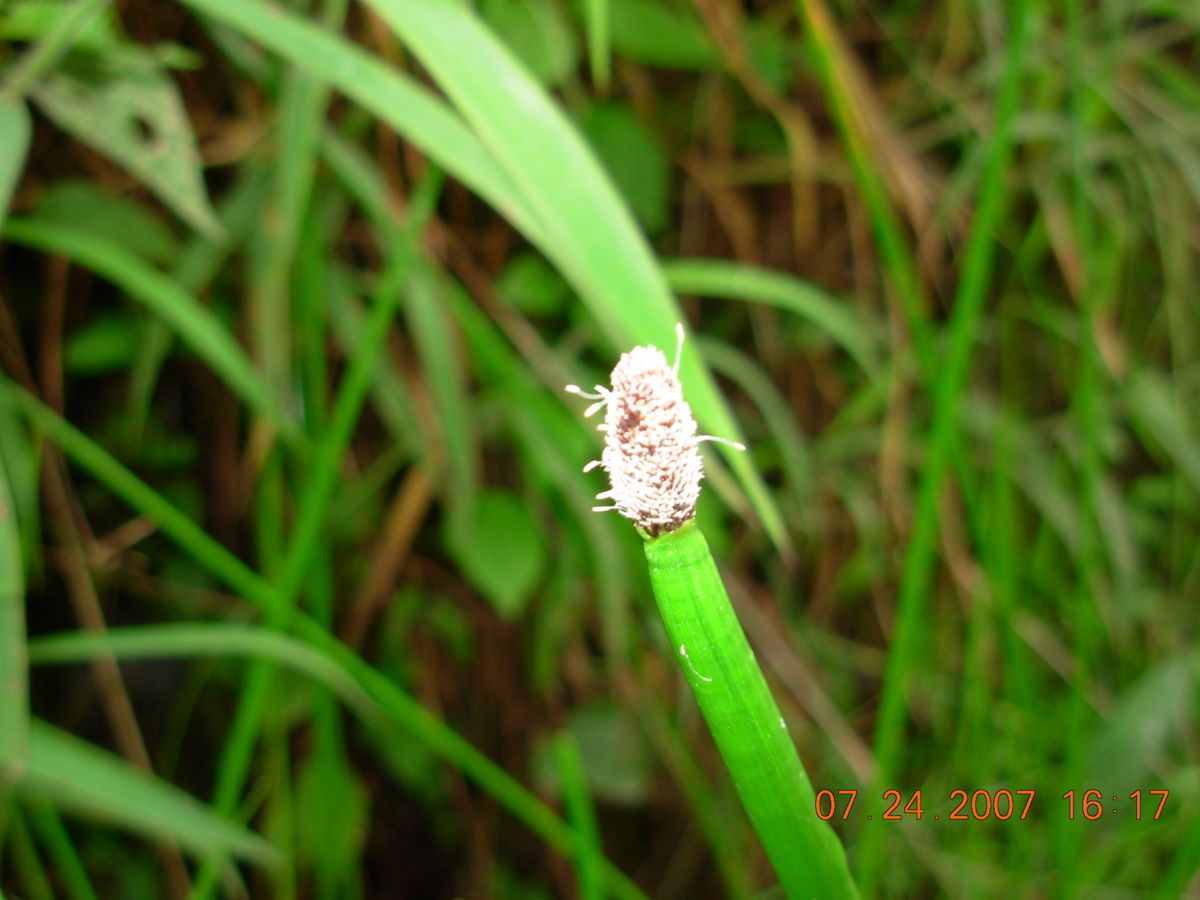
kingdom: Plantae
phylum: Tracheophyta
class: Liliopsida
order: Poales
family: Cyperaceae
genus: Eleocharis
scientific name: Eleocharis elegans
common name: Elegant spike-rush
